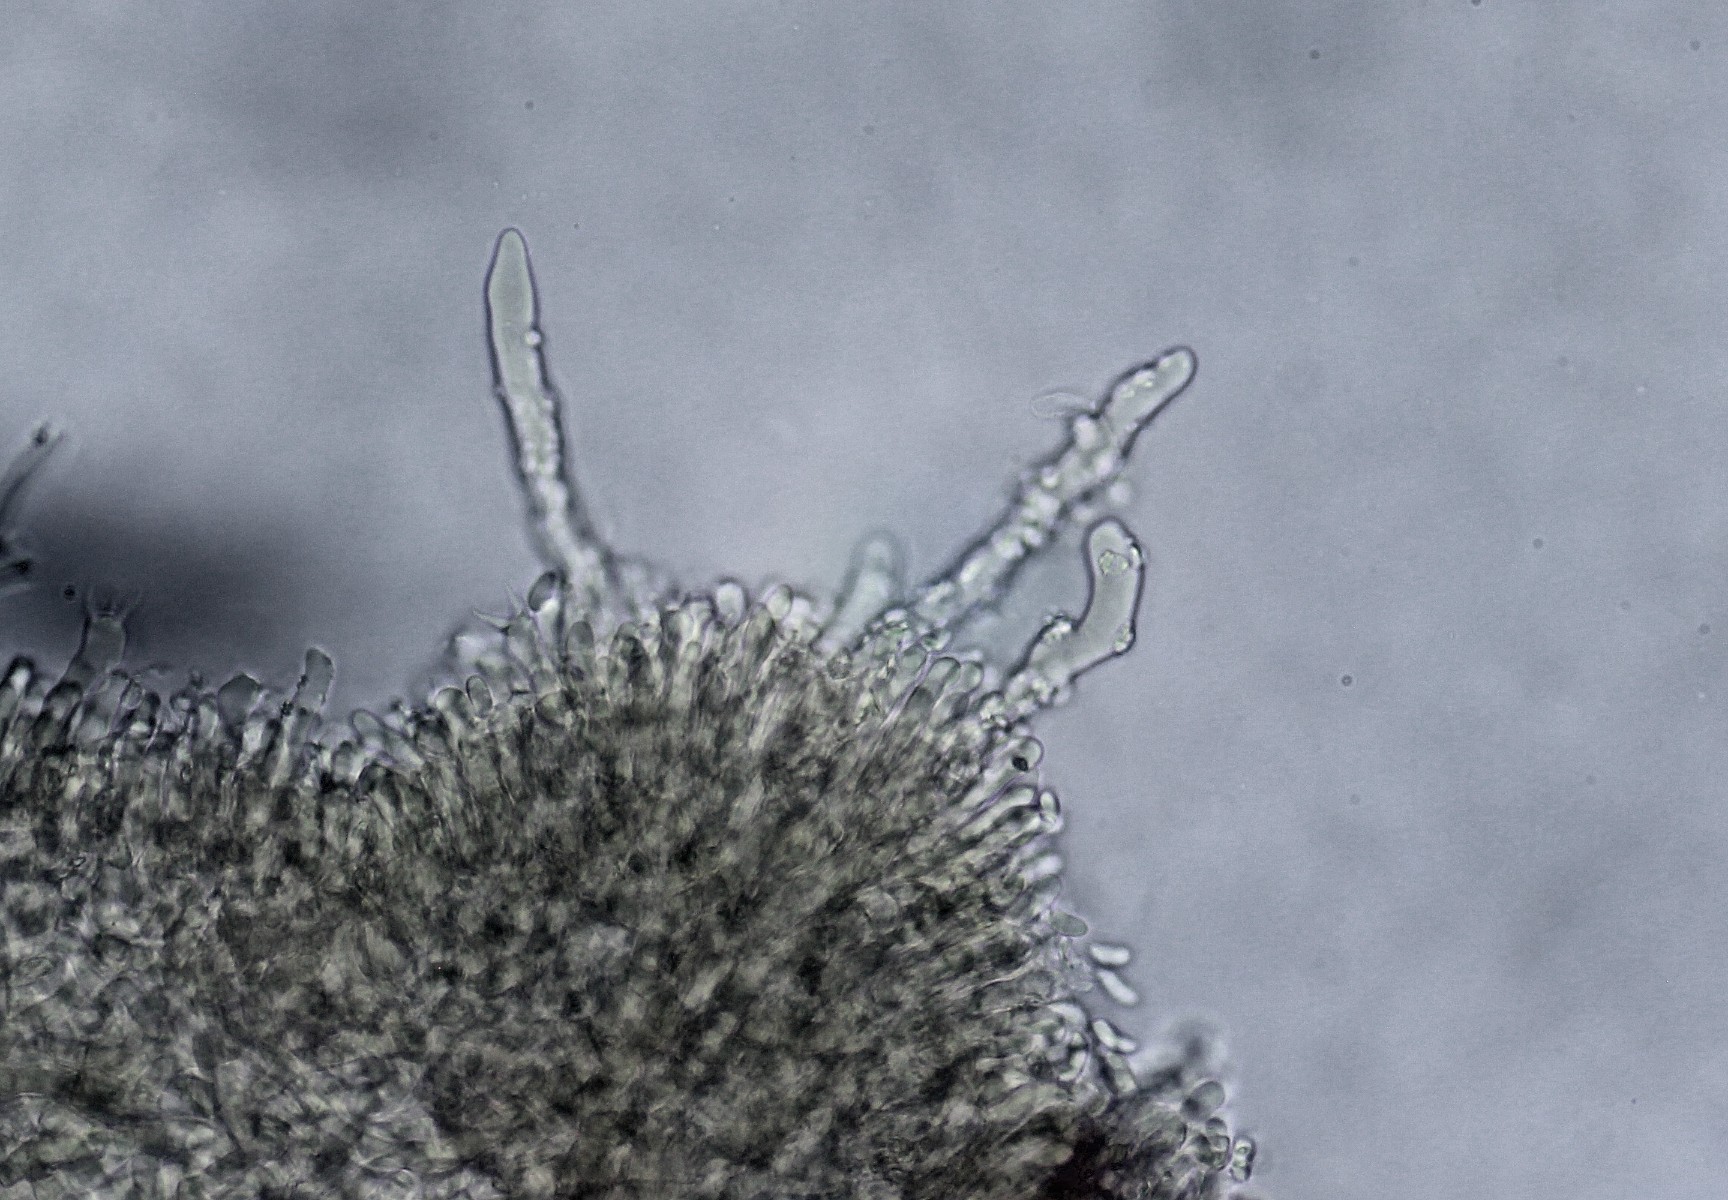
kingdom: Fungi
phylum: Basidiomycota
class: Agaricomycetes
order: Polyporales
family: Hyphodermataceae
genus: Hyphoderma
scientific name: Hyphoderma setigerum
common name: håret kalkskind
